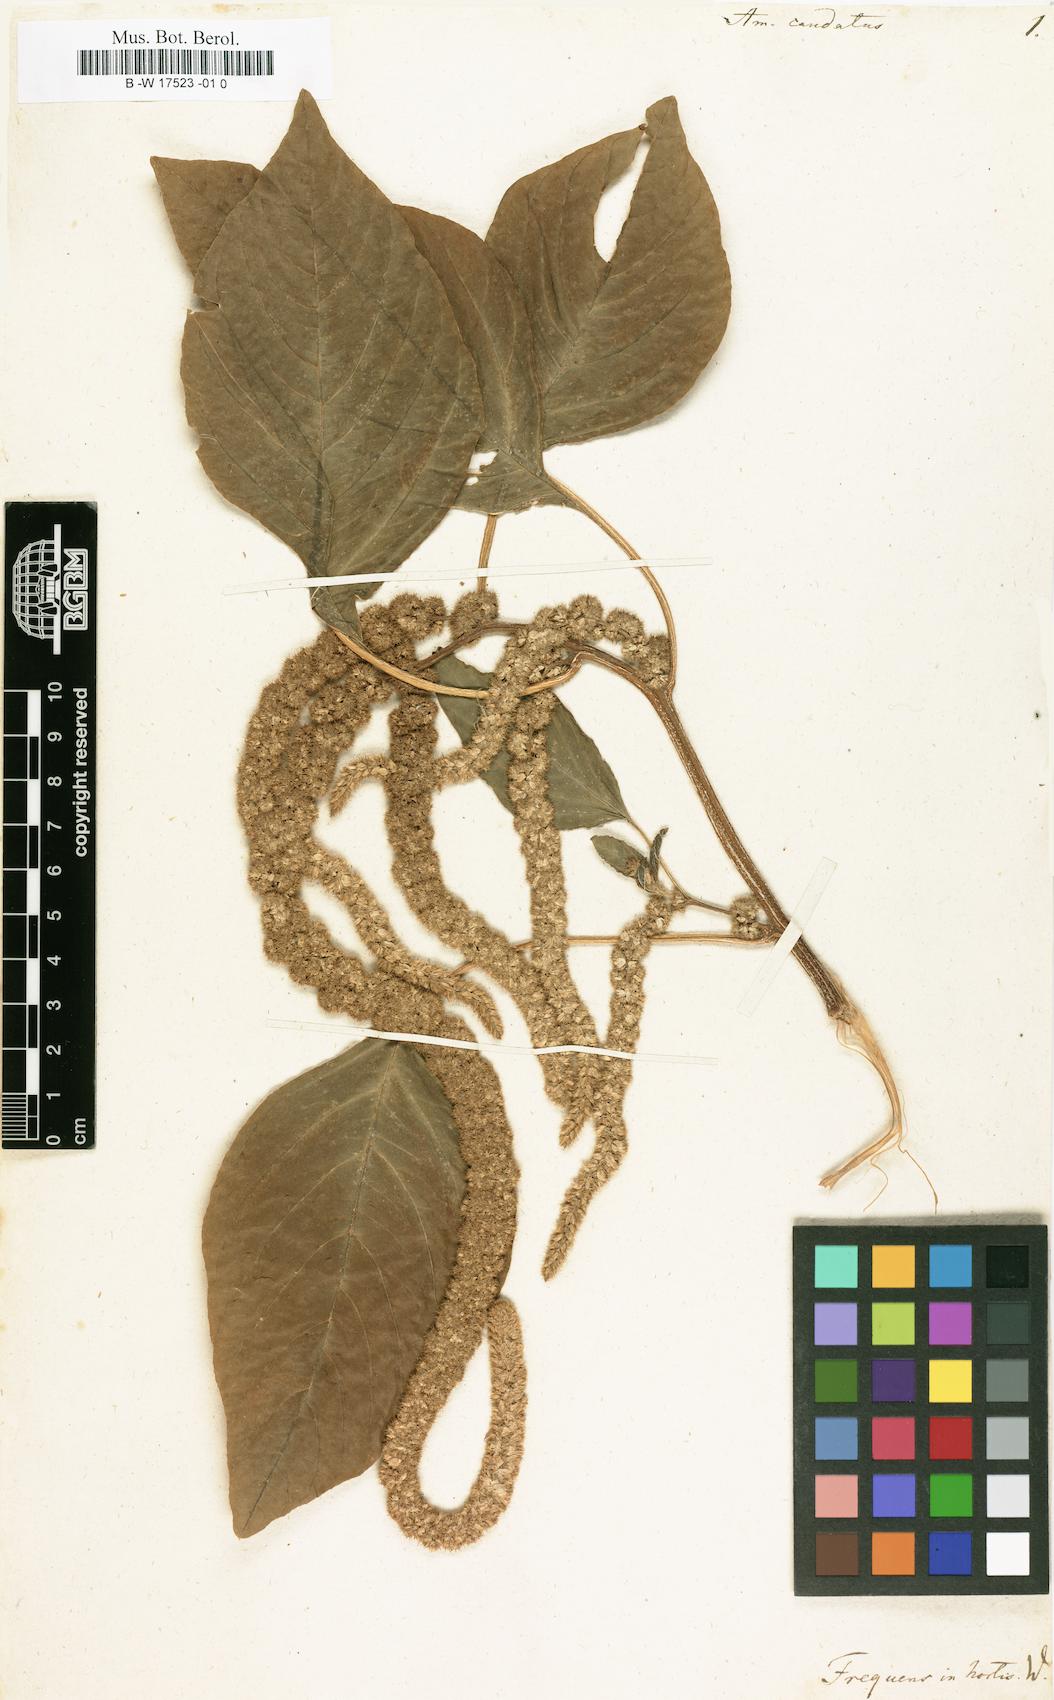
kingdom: Plantae
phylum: Tracheophyta
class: Magnoliopsida
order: Caryophyllales
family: Amaranthaceae
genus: Amaranthus
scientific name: Amaranthus caudatus
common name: Love-lies-bleeding
